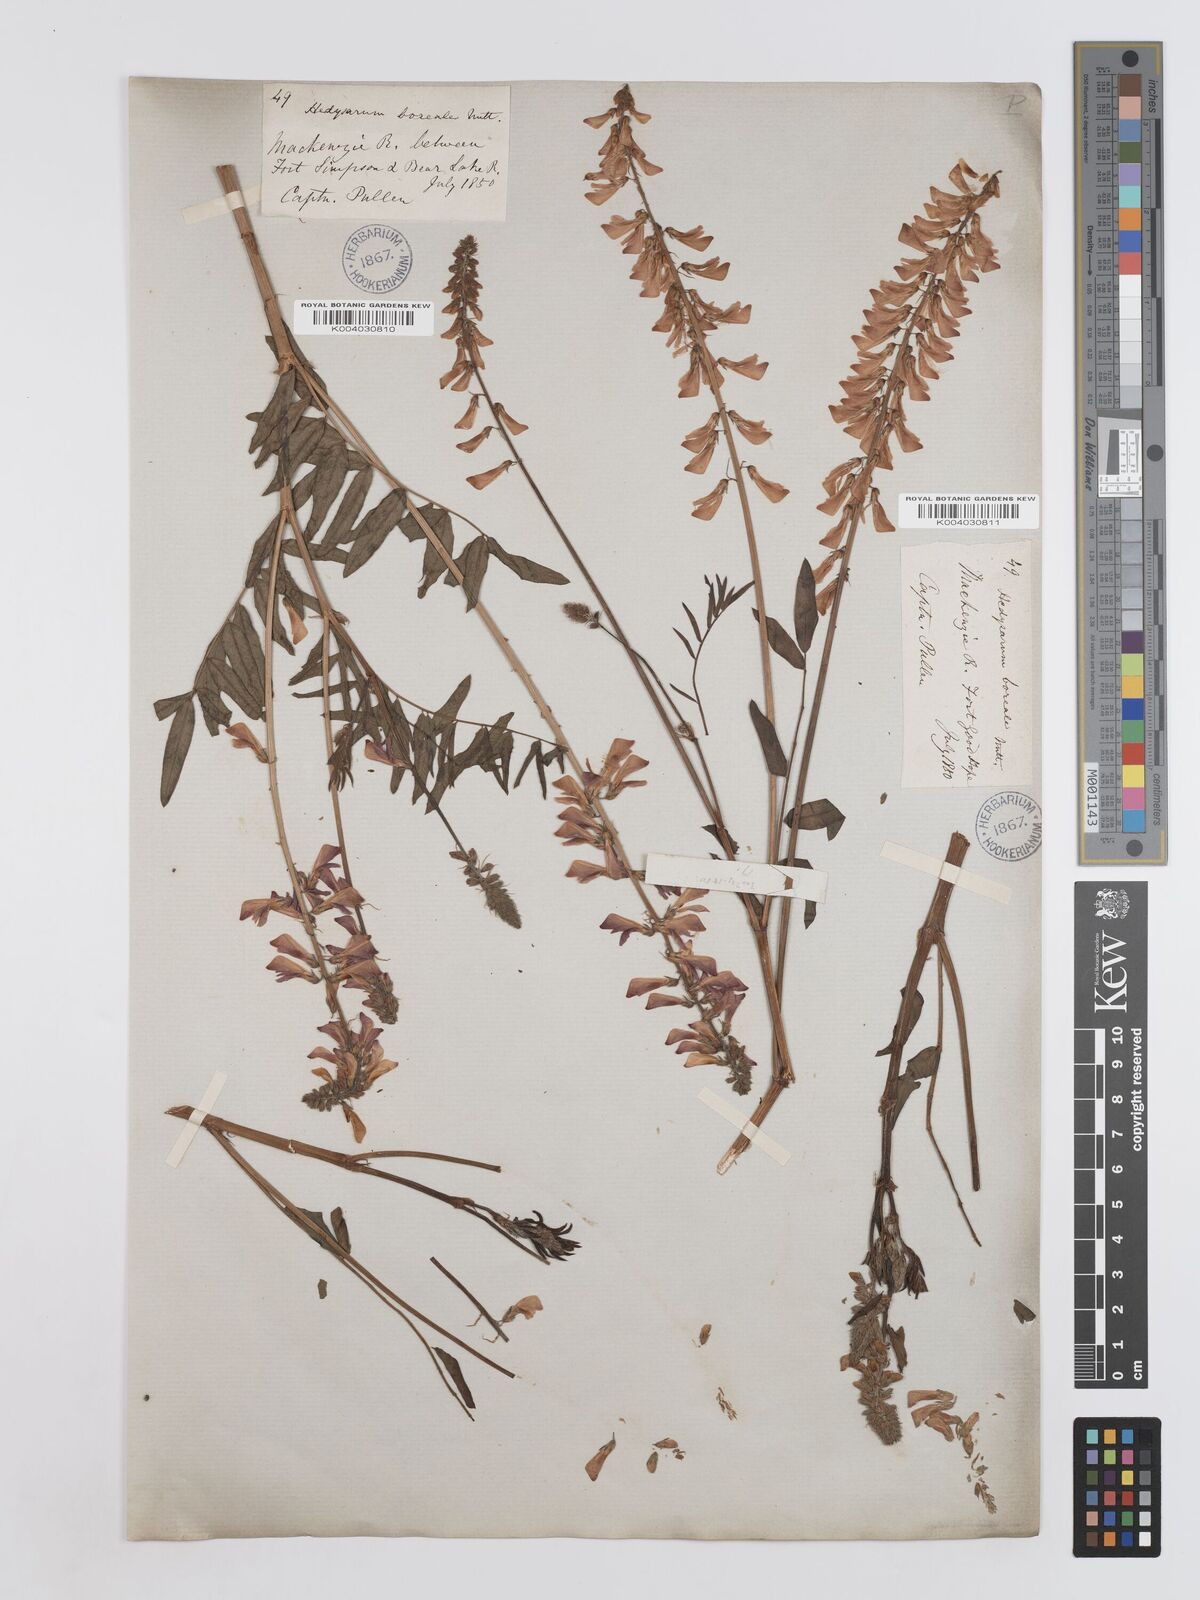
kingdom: Plantae
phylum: Tracheophyta
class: Magnoliopsida
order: Fabales
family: Fabaceae
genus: Hedysarum
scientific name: Hedysarum boreale
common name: Northern sweet-vetch
